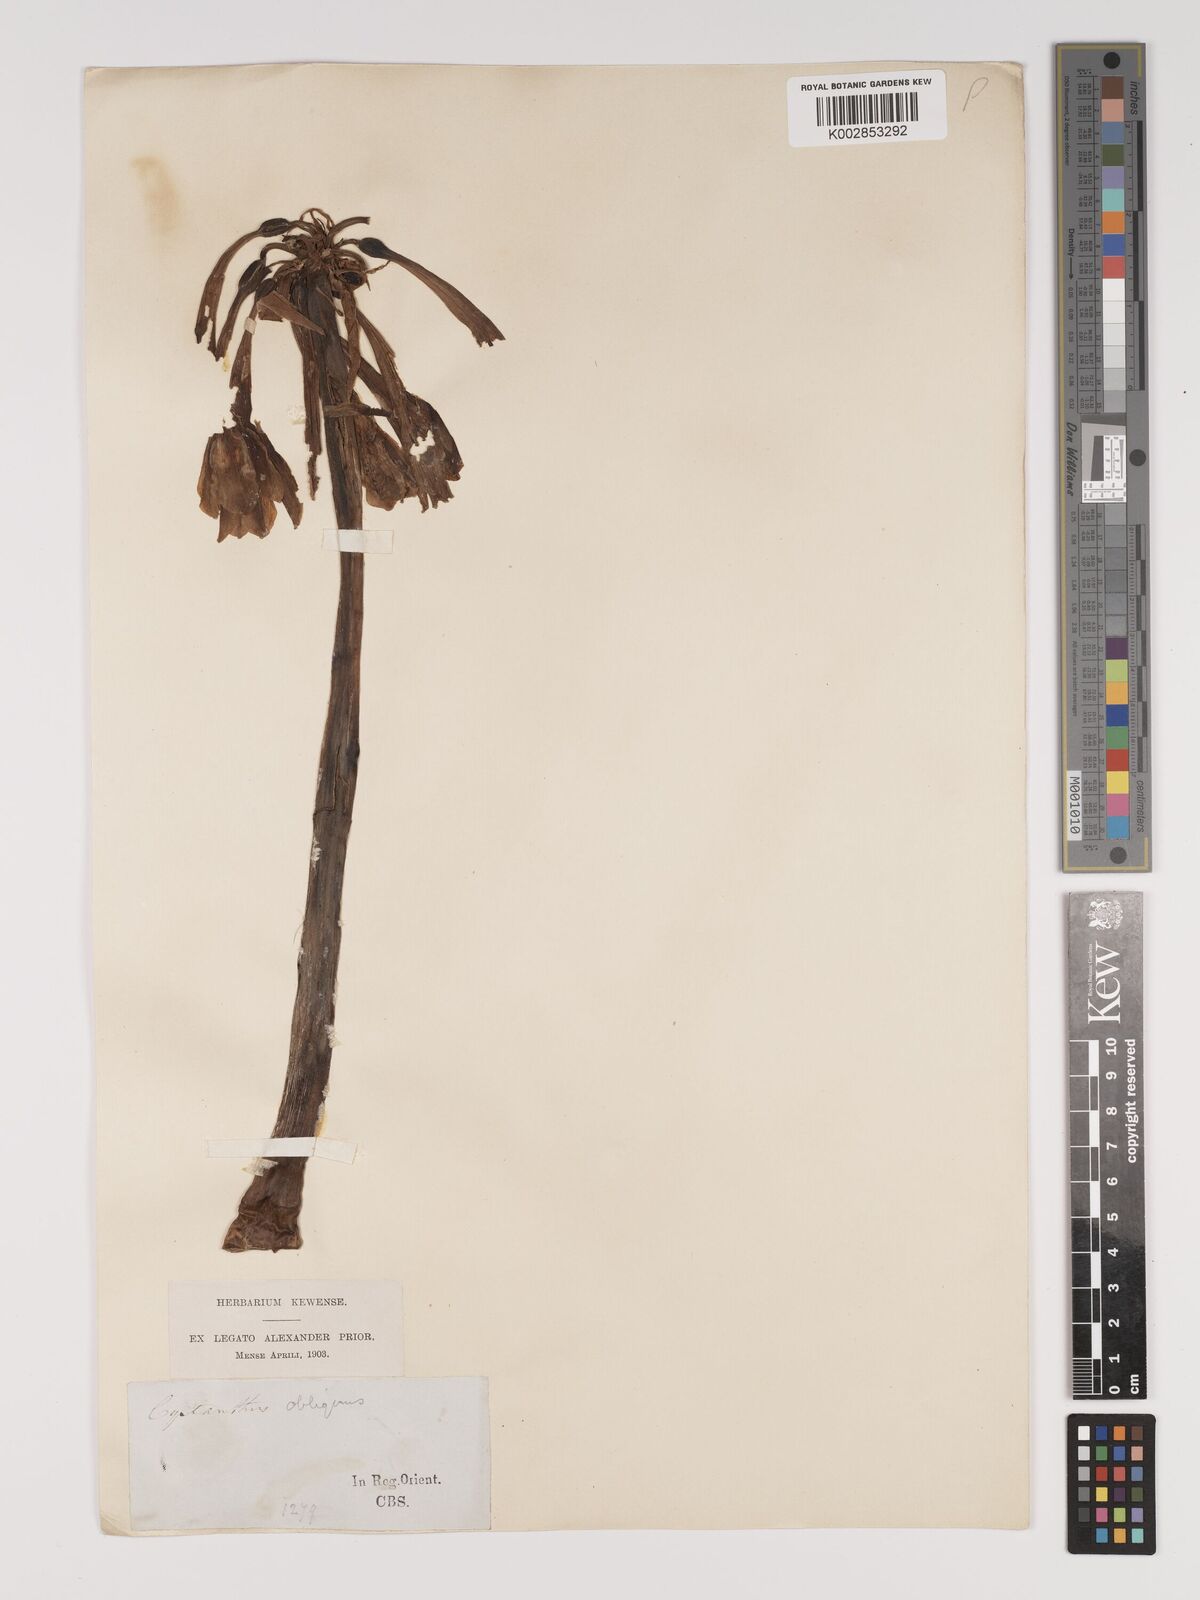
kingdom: Plantae
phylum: Tracheophyta
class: Liliopsida
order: Asparagales
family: Amaryllidaceae
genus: Cyrtanthus
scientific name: Cyrtanthus obliquus
